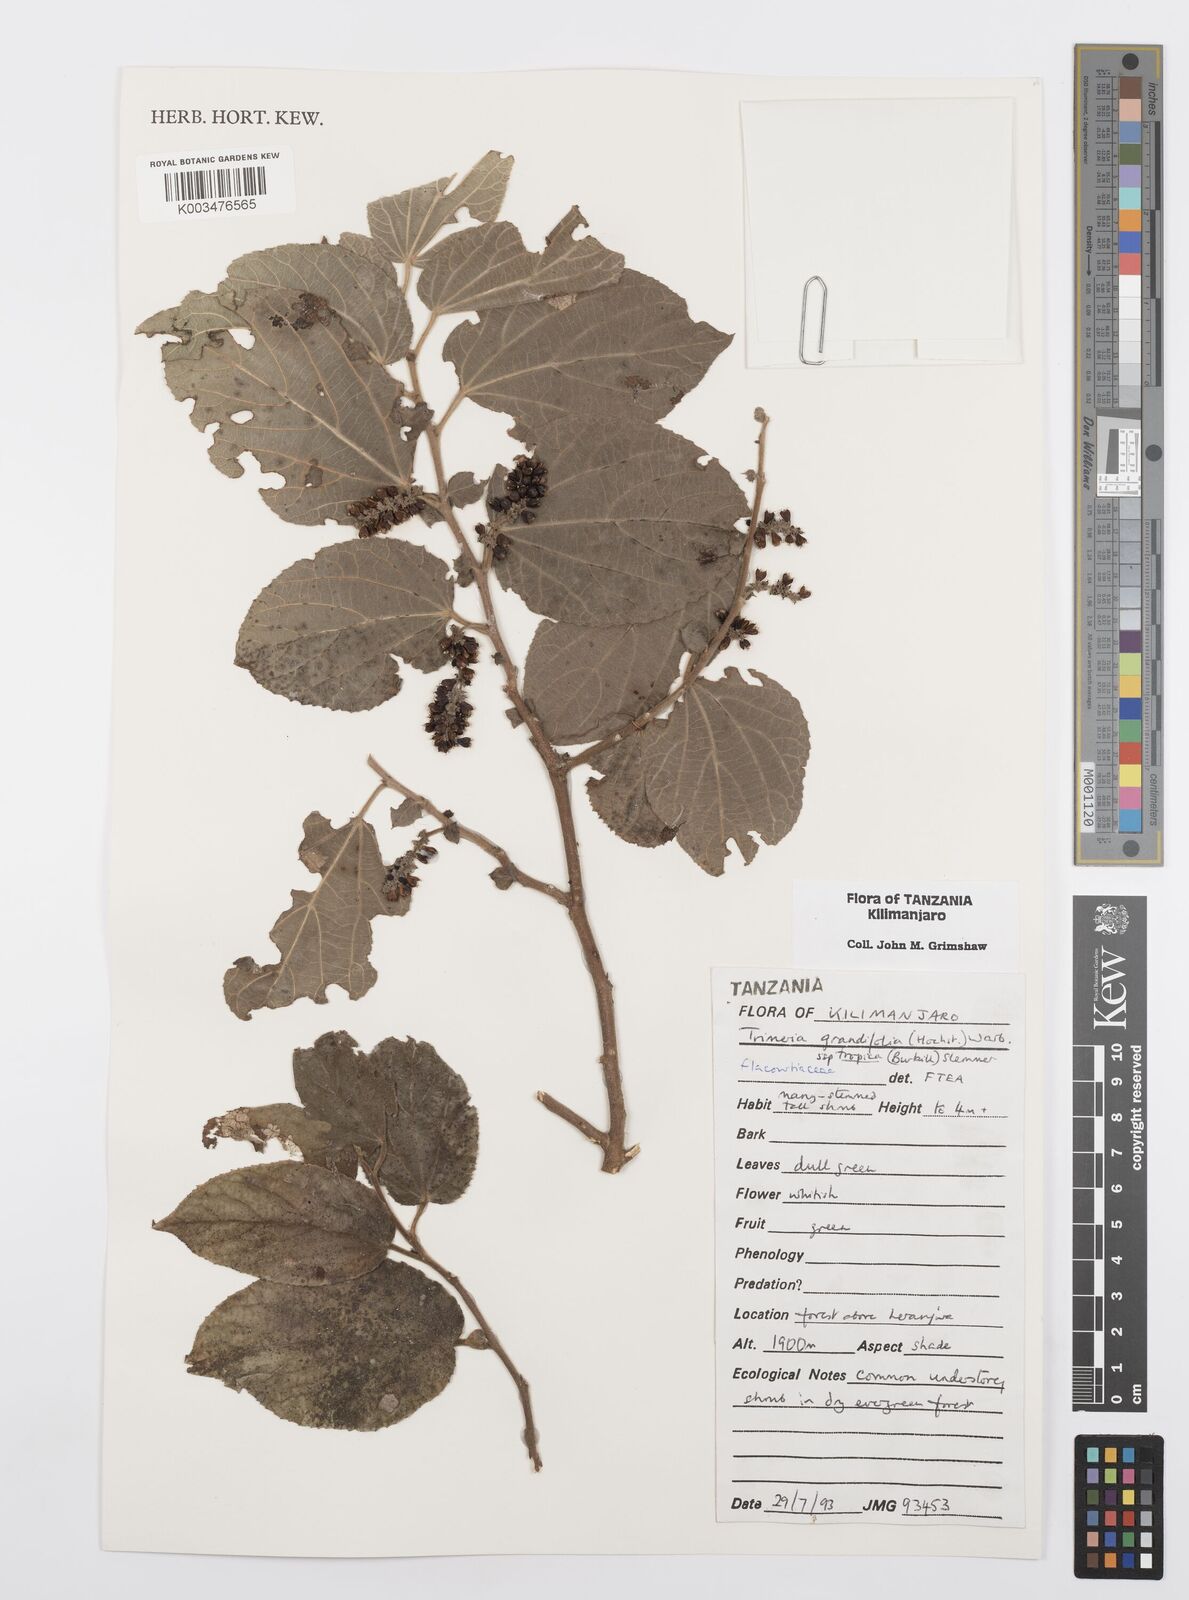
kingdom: Plantae
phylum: Tracheophyta
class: Magnoliopsida
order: Malpighiales
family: Salicaceae
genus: Trimeria
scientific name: Trimeria grandifolia
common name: Wild mulberry
